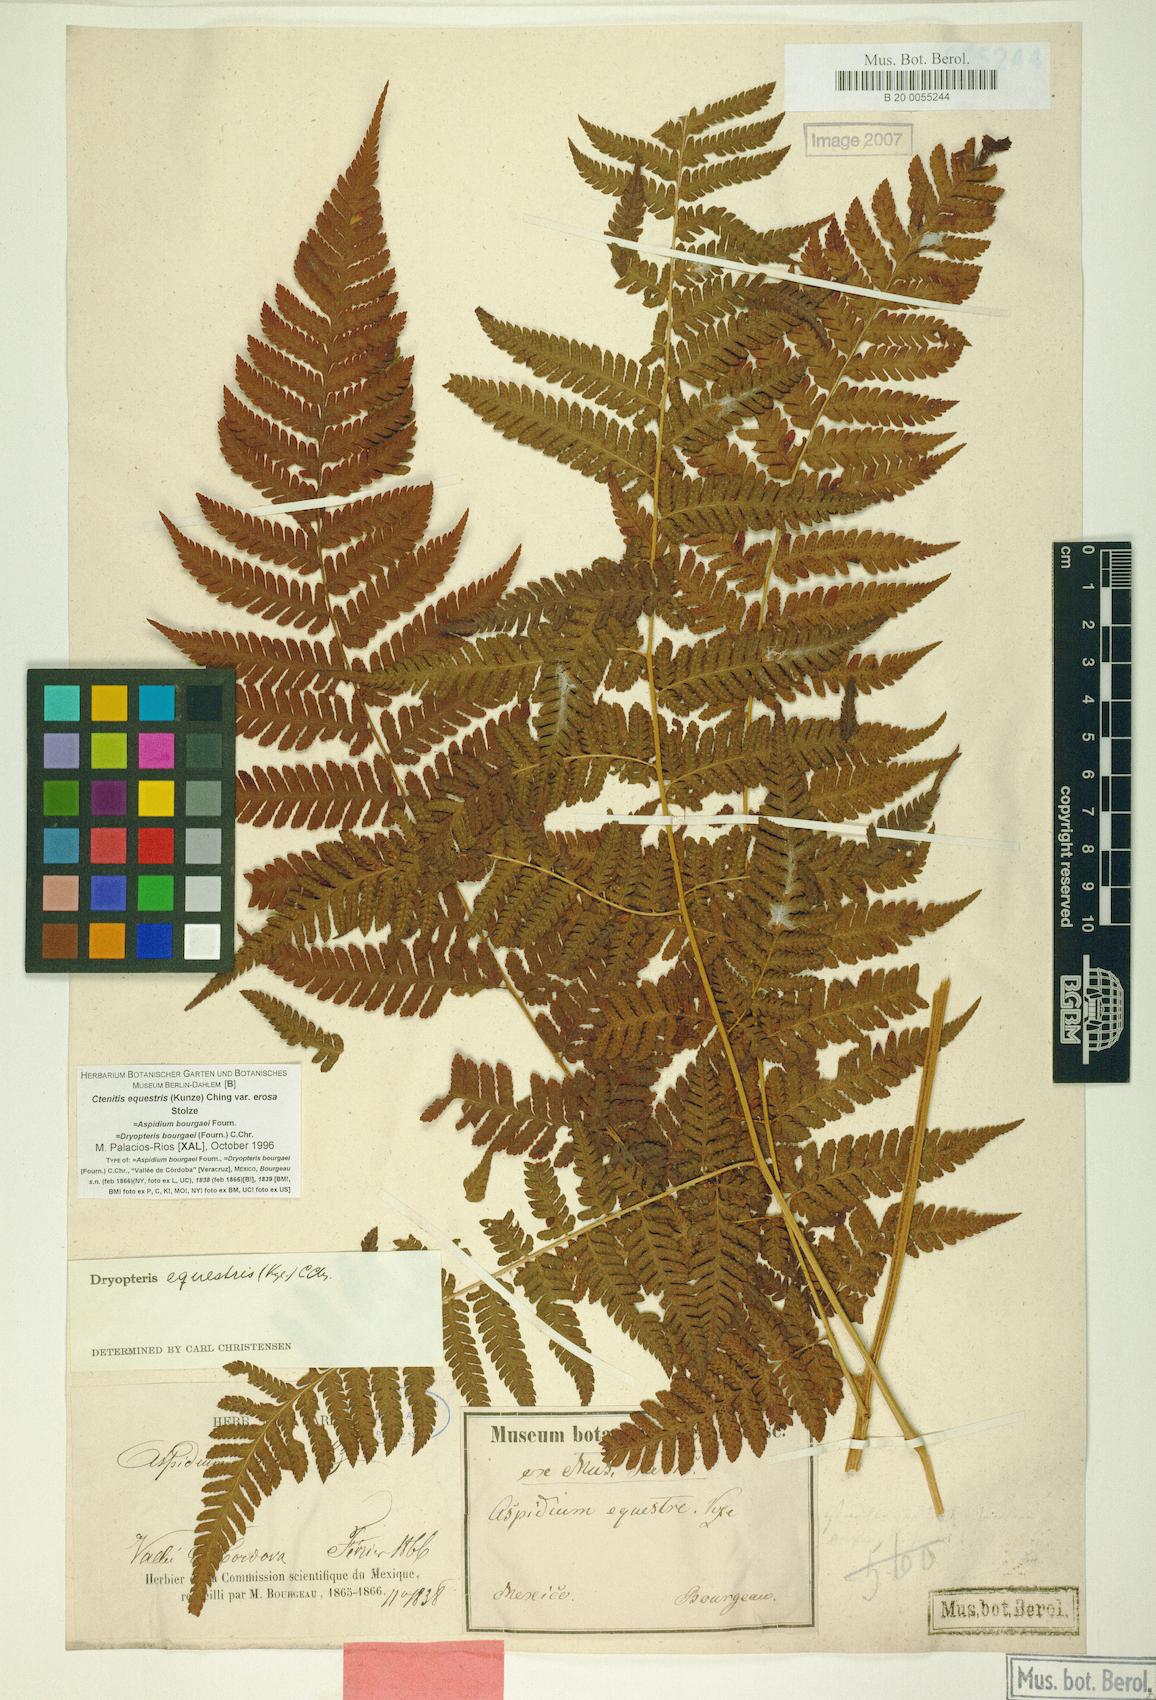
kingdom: Plantae
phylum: Tracheophyta
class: Polypodiopsida
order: Polypodiales
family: Dryopteridaceae
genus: Ctenitis
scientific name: Ctenitis equestris
